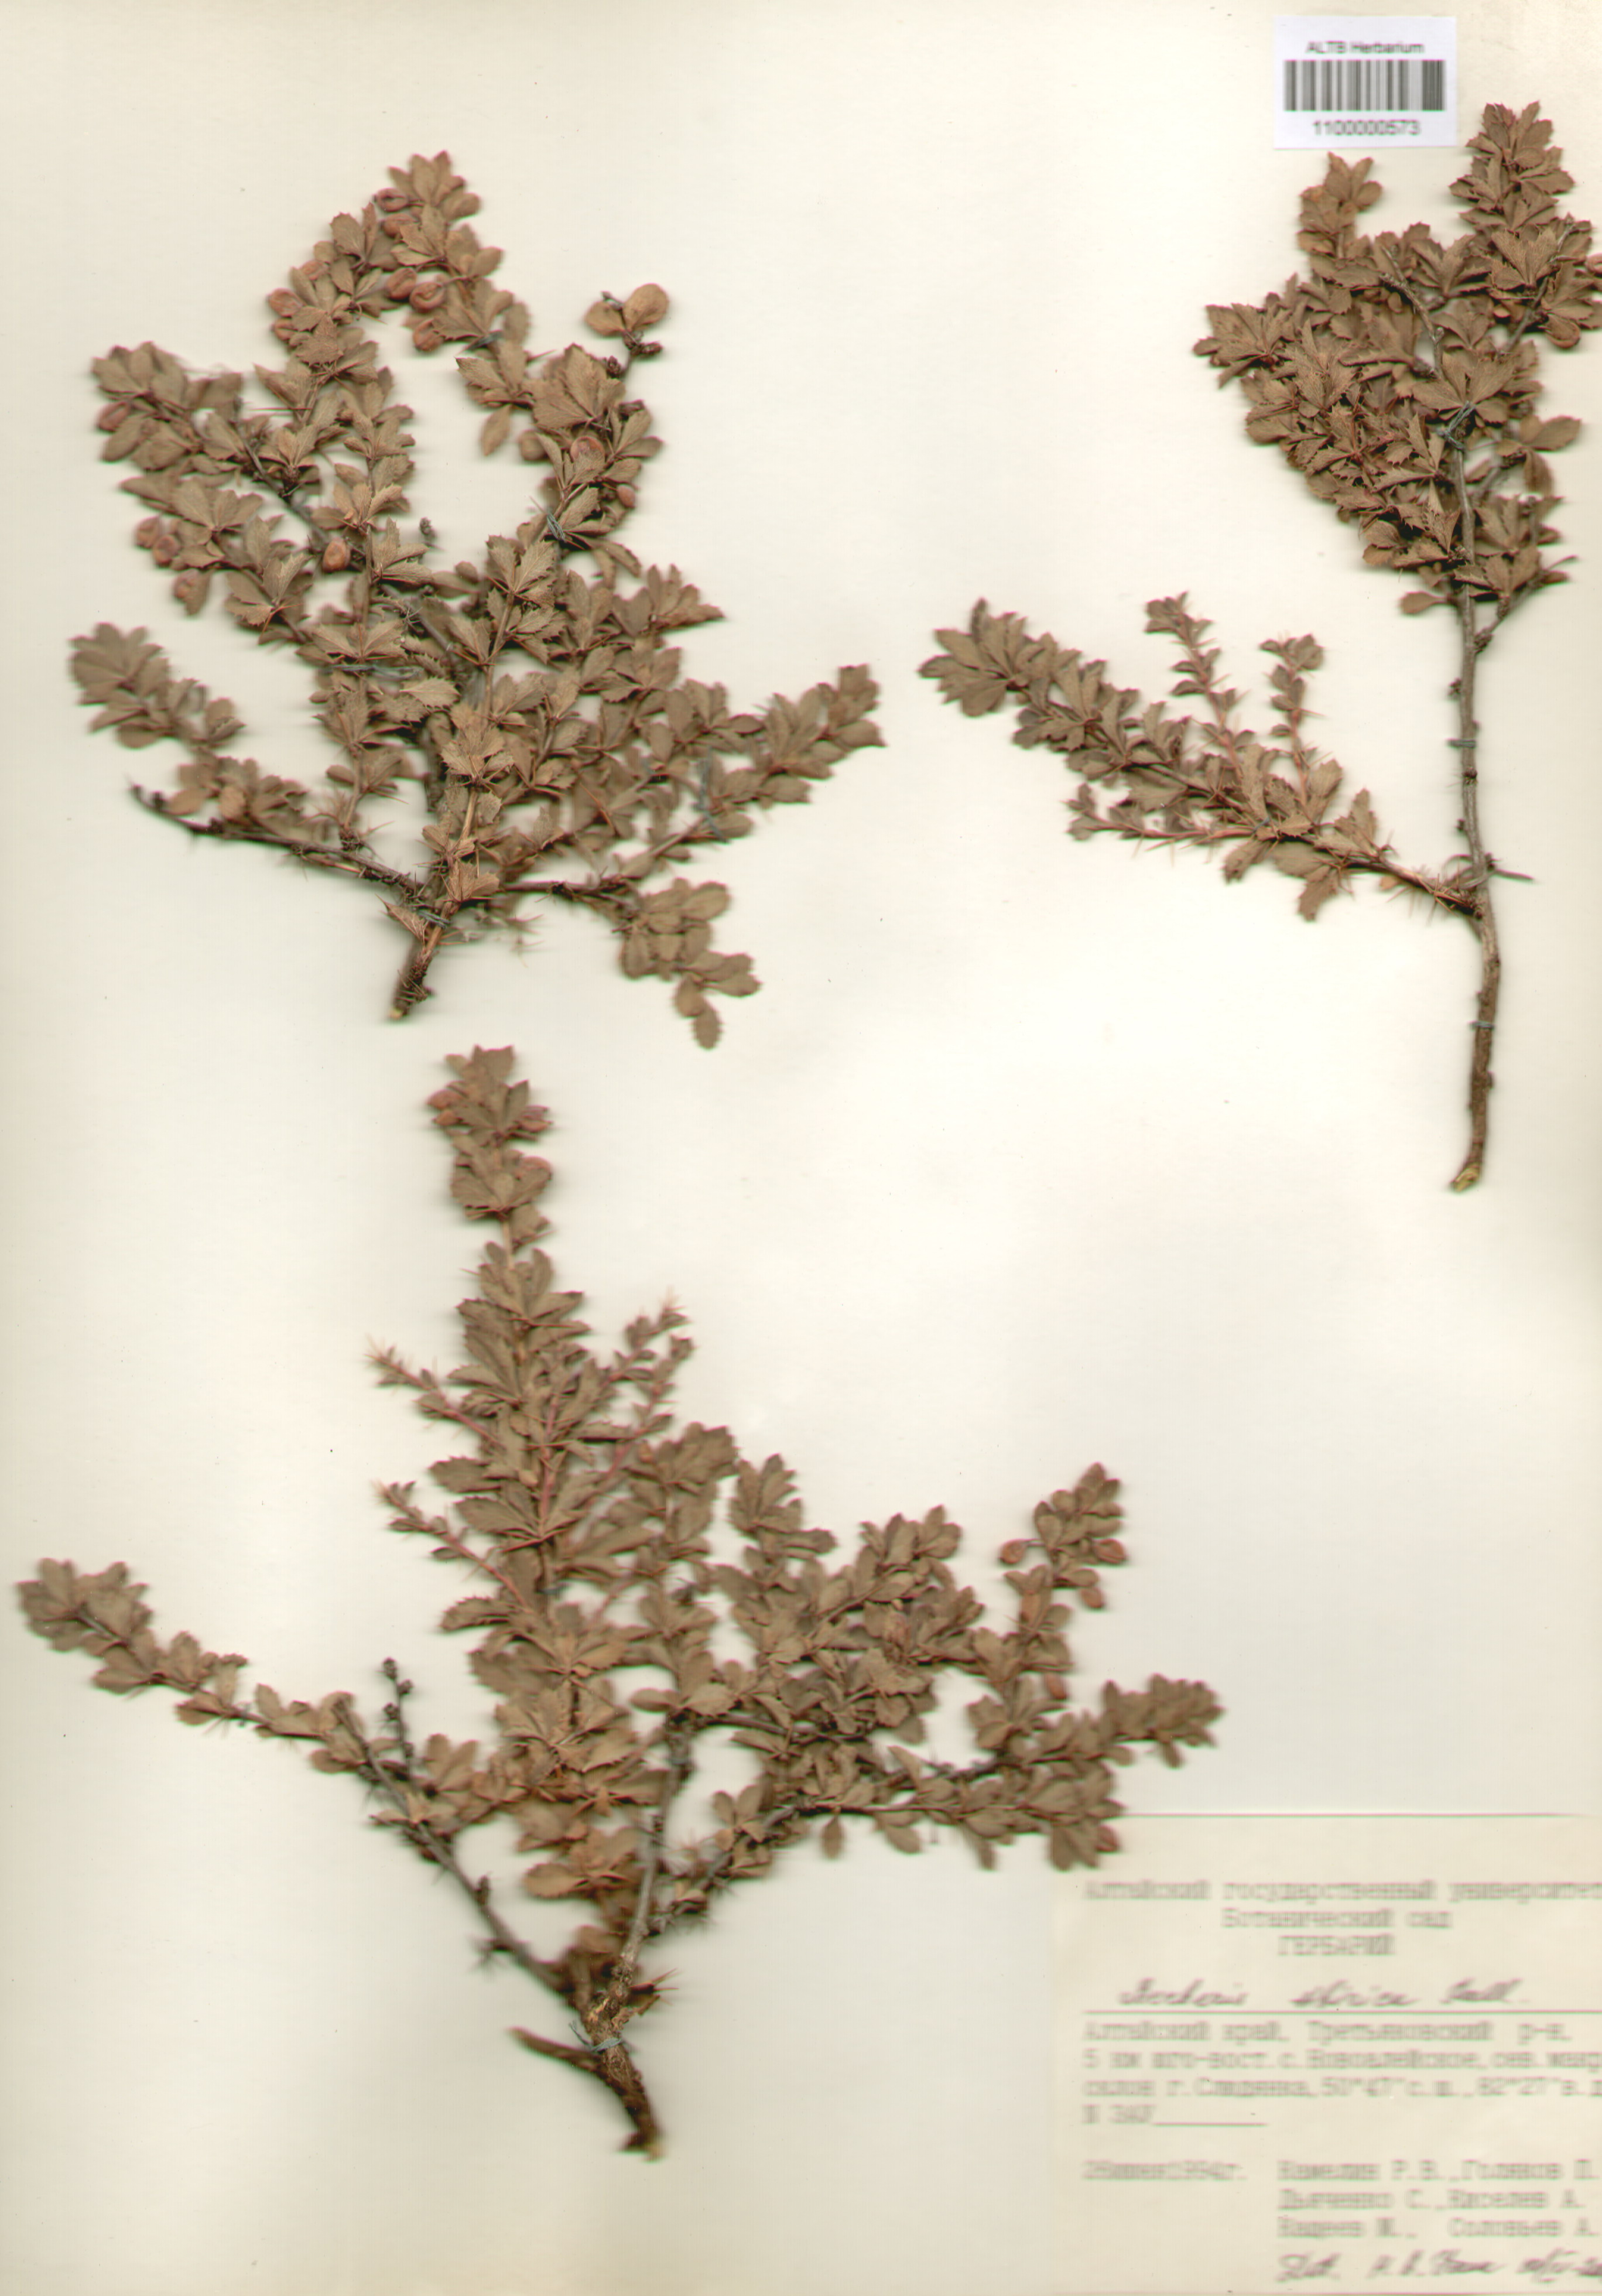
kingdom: Plantae
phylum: Tracheophyta
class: Magnoliopsida
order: Ranunculales
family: Berberidaceae
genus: Berberis
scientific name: Berberis sibirica
